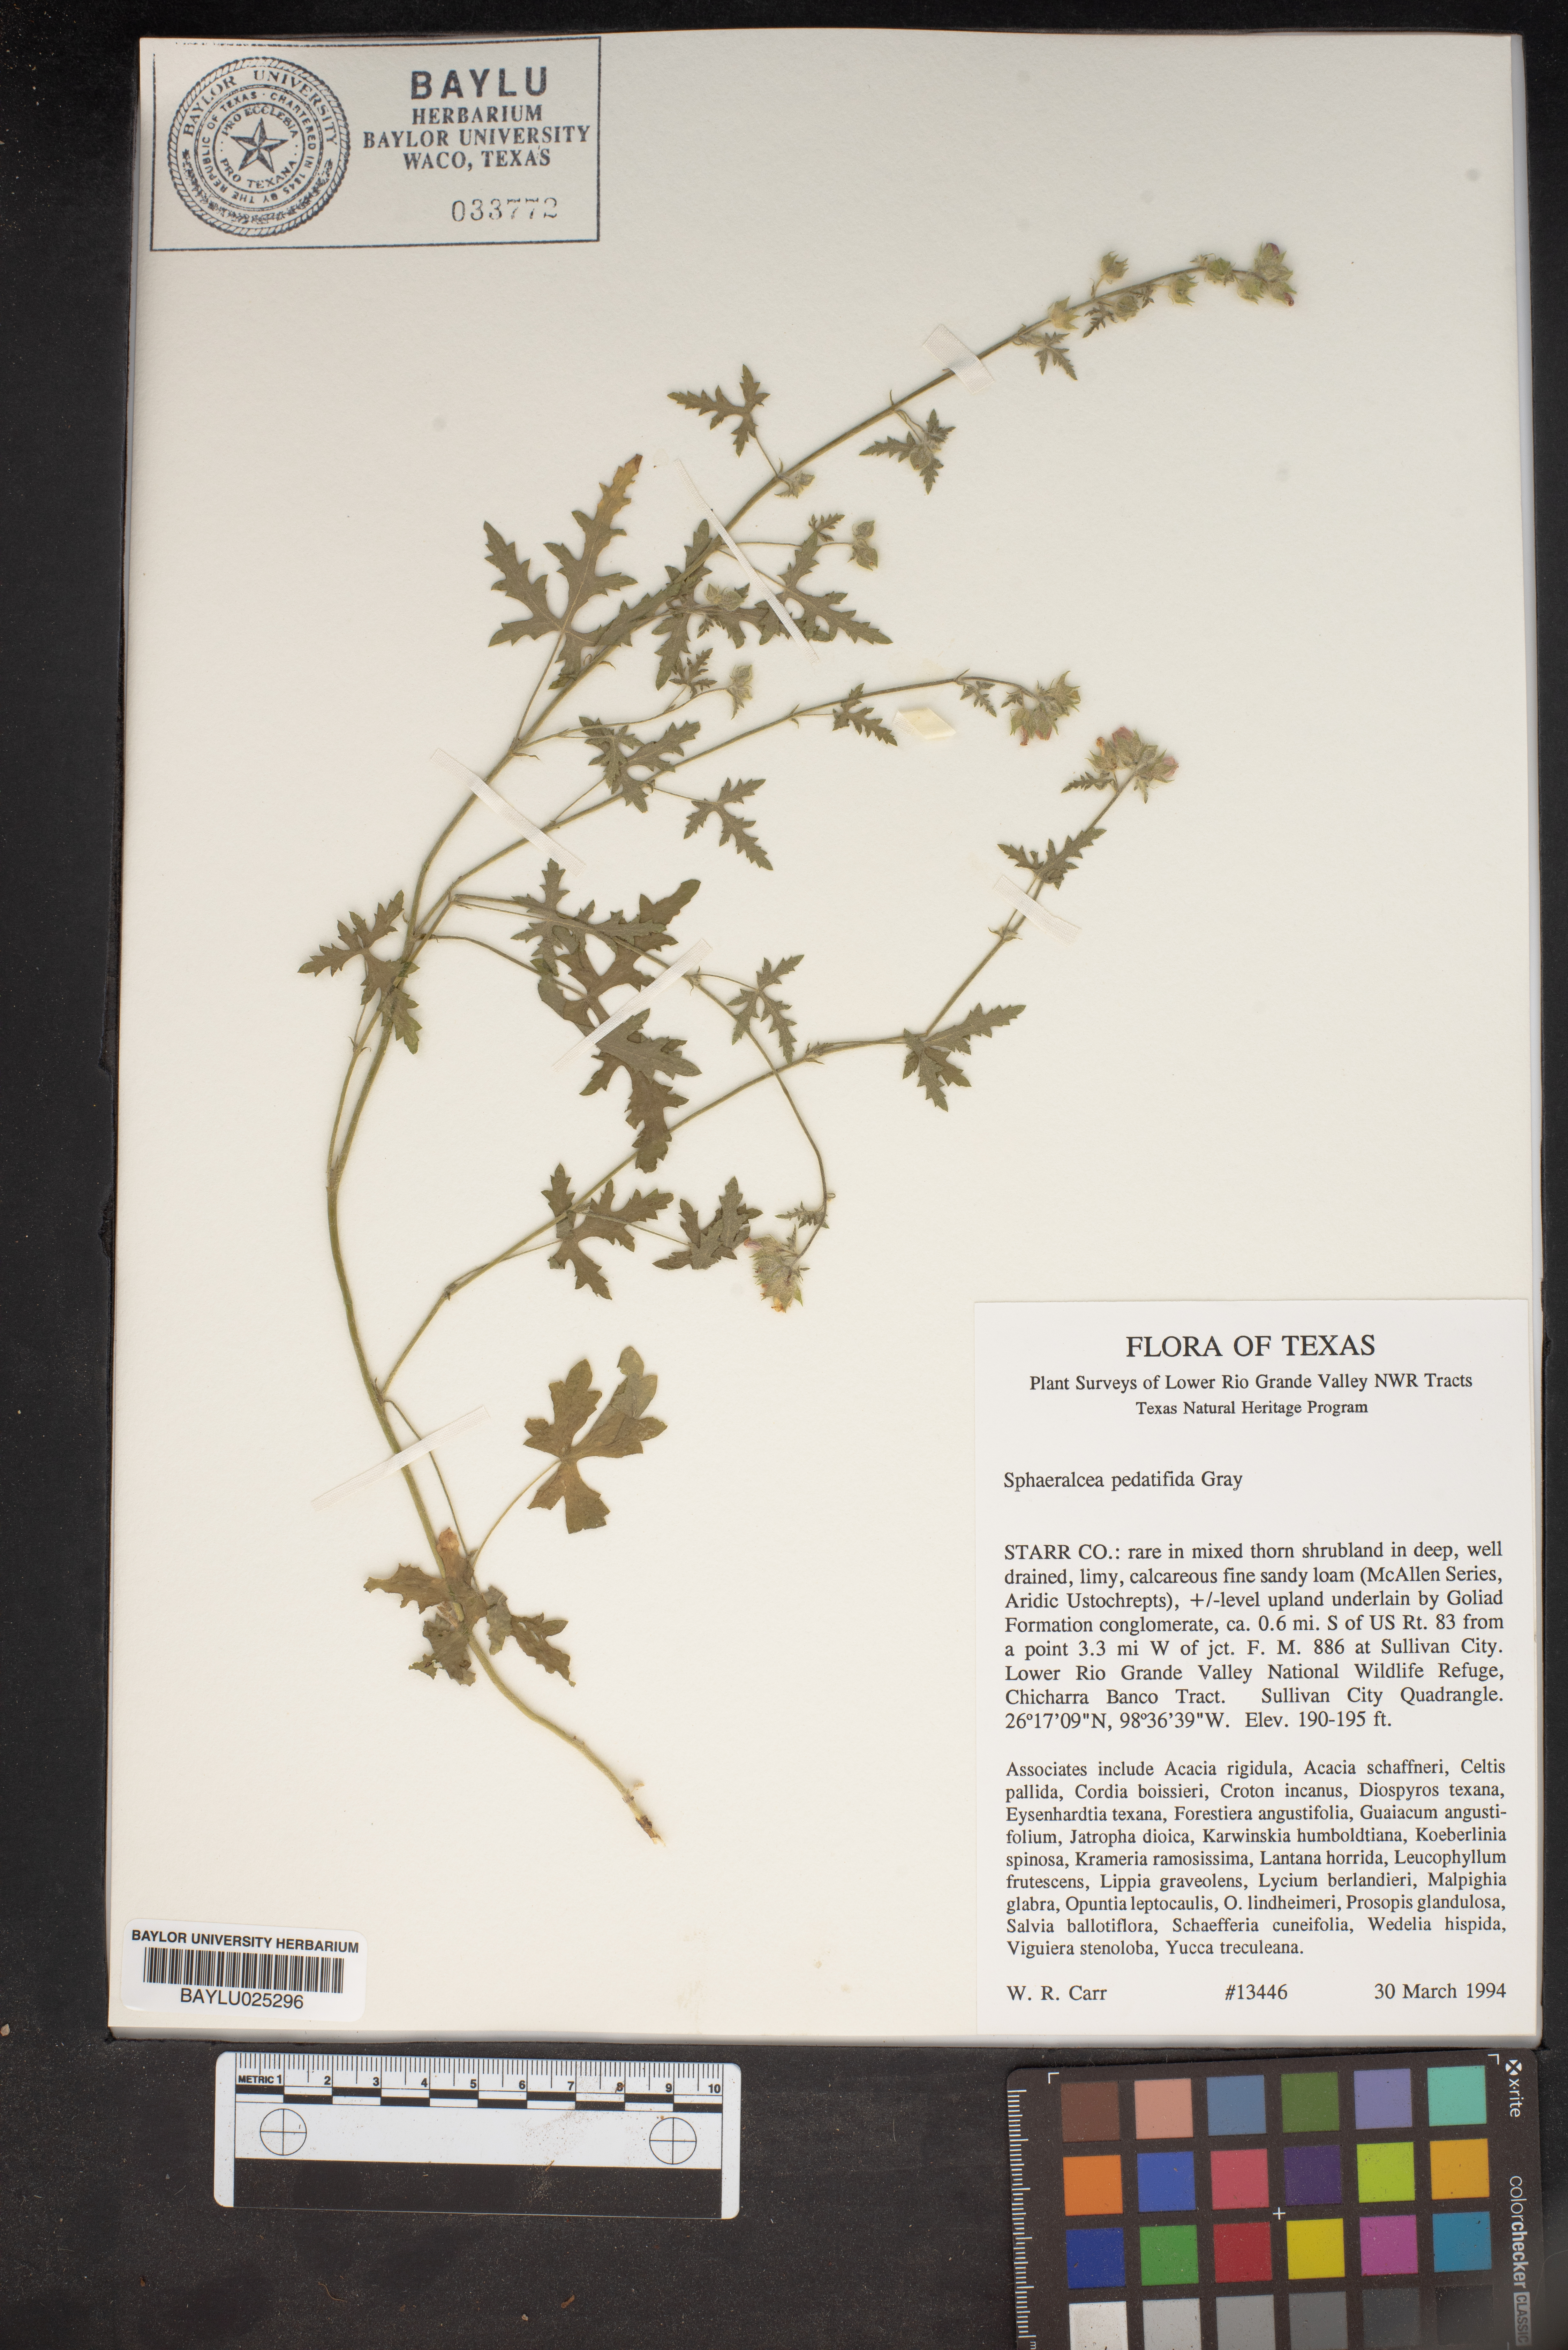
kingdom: Plantae
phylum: Tracheophyta
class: Magnoliopsida
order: Malvales
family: Malvaceae
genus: Sphaeralcea
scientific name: Sphaeralcea pedatifida
